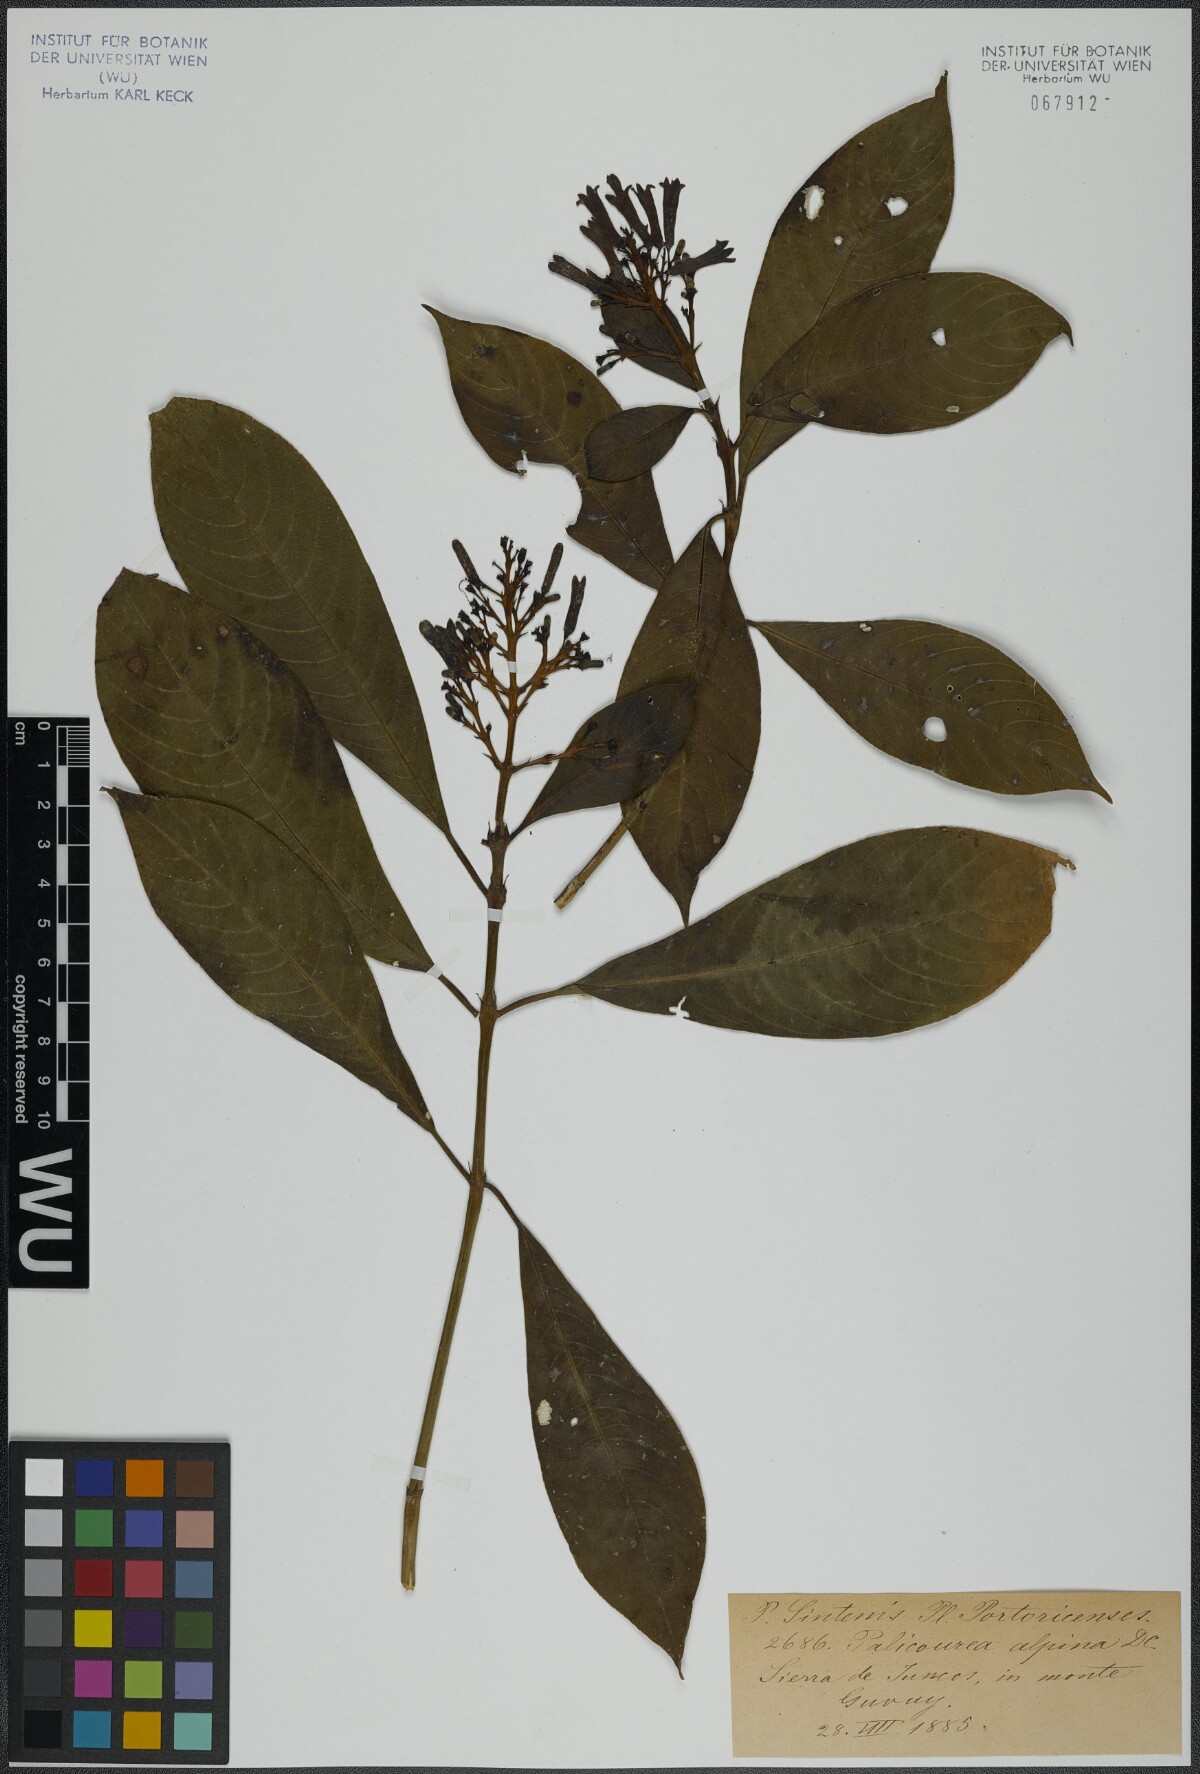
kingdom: Plantae
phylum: Tracheophyta
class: Magnoliopsida
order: Gentianales
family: Rubiaceae
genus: Palicourea
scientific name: Palicourea alpina
